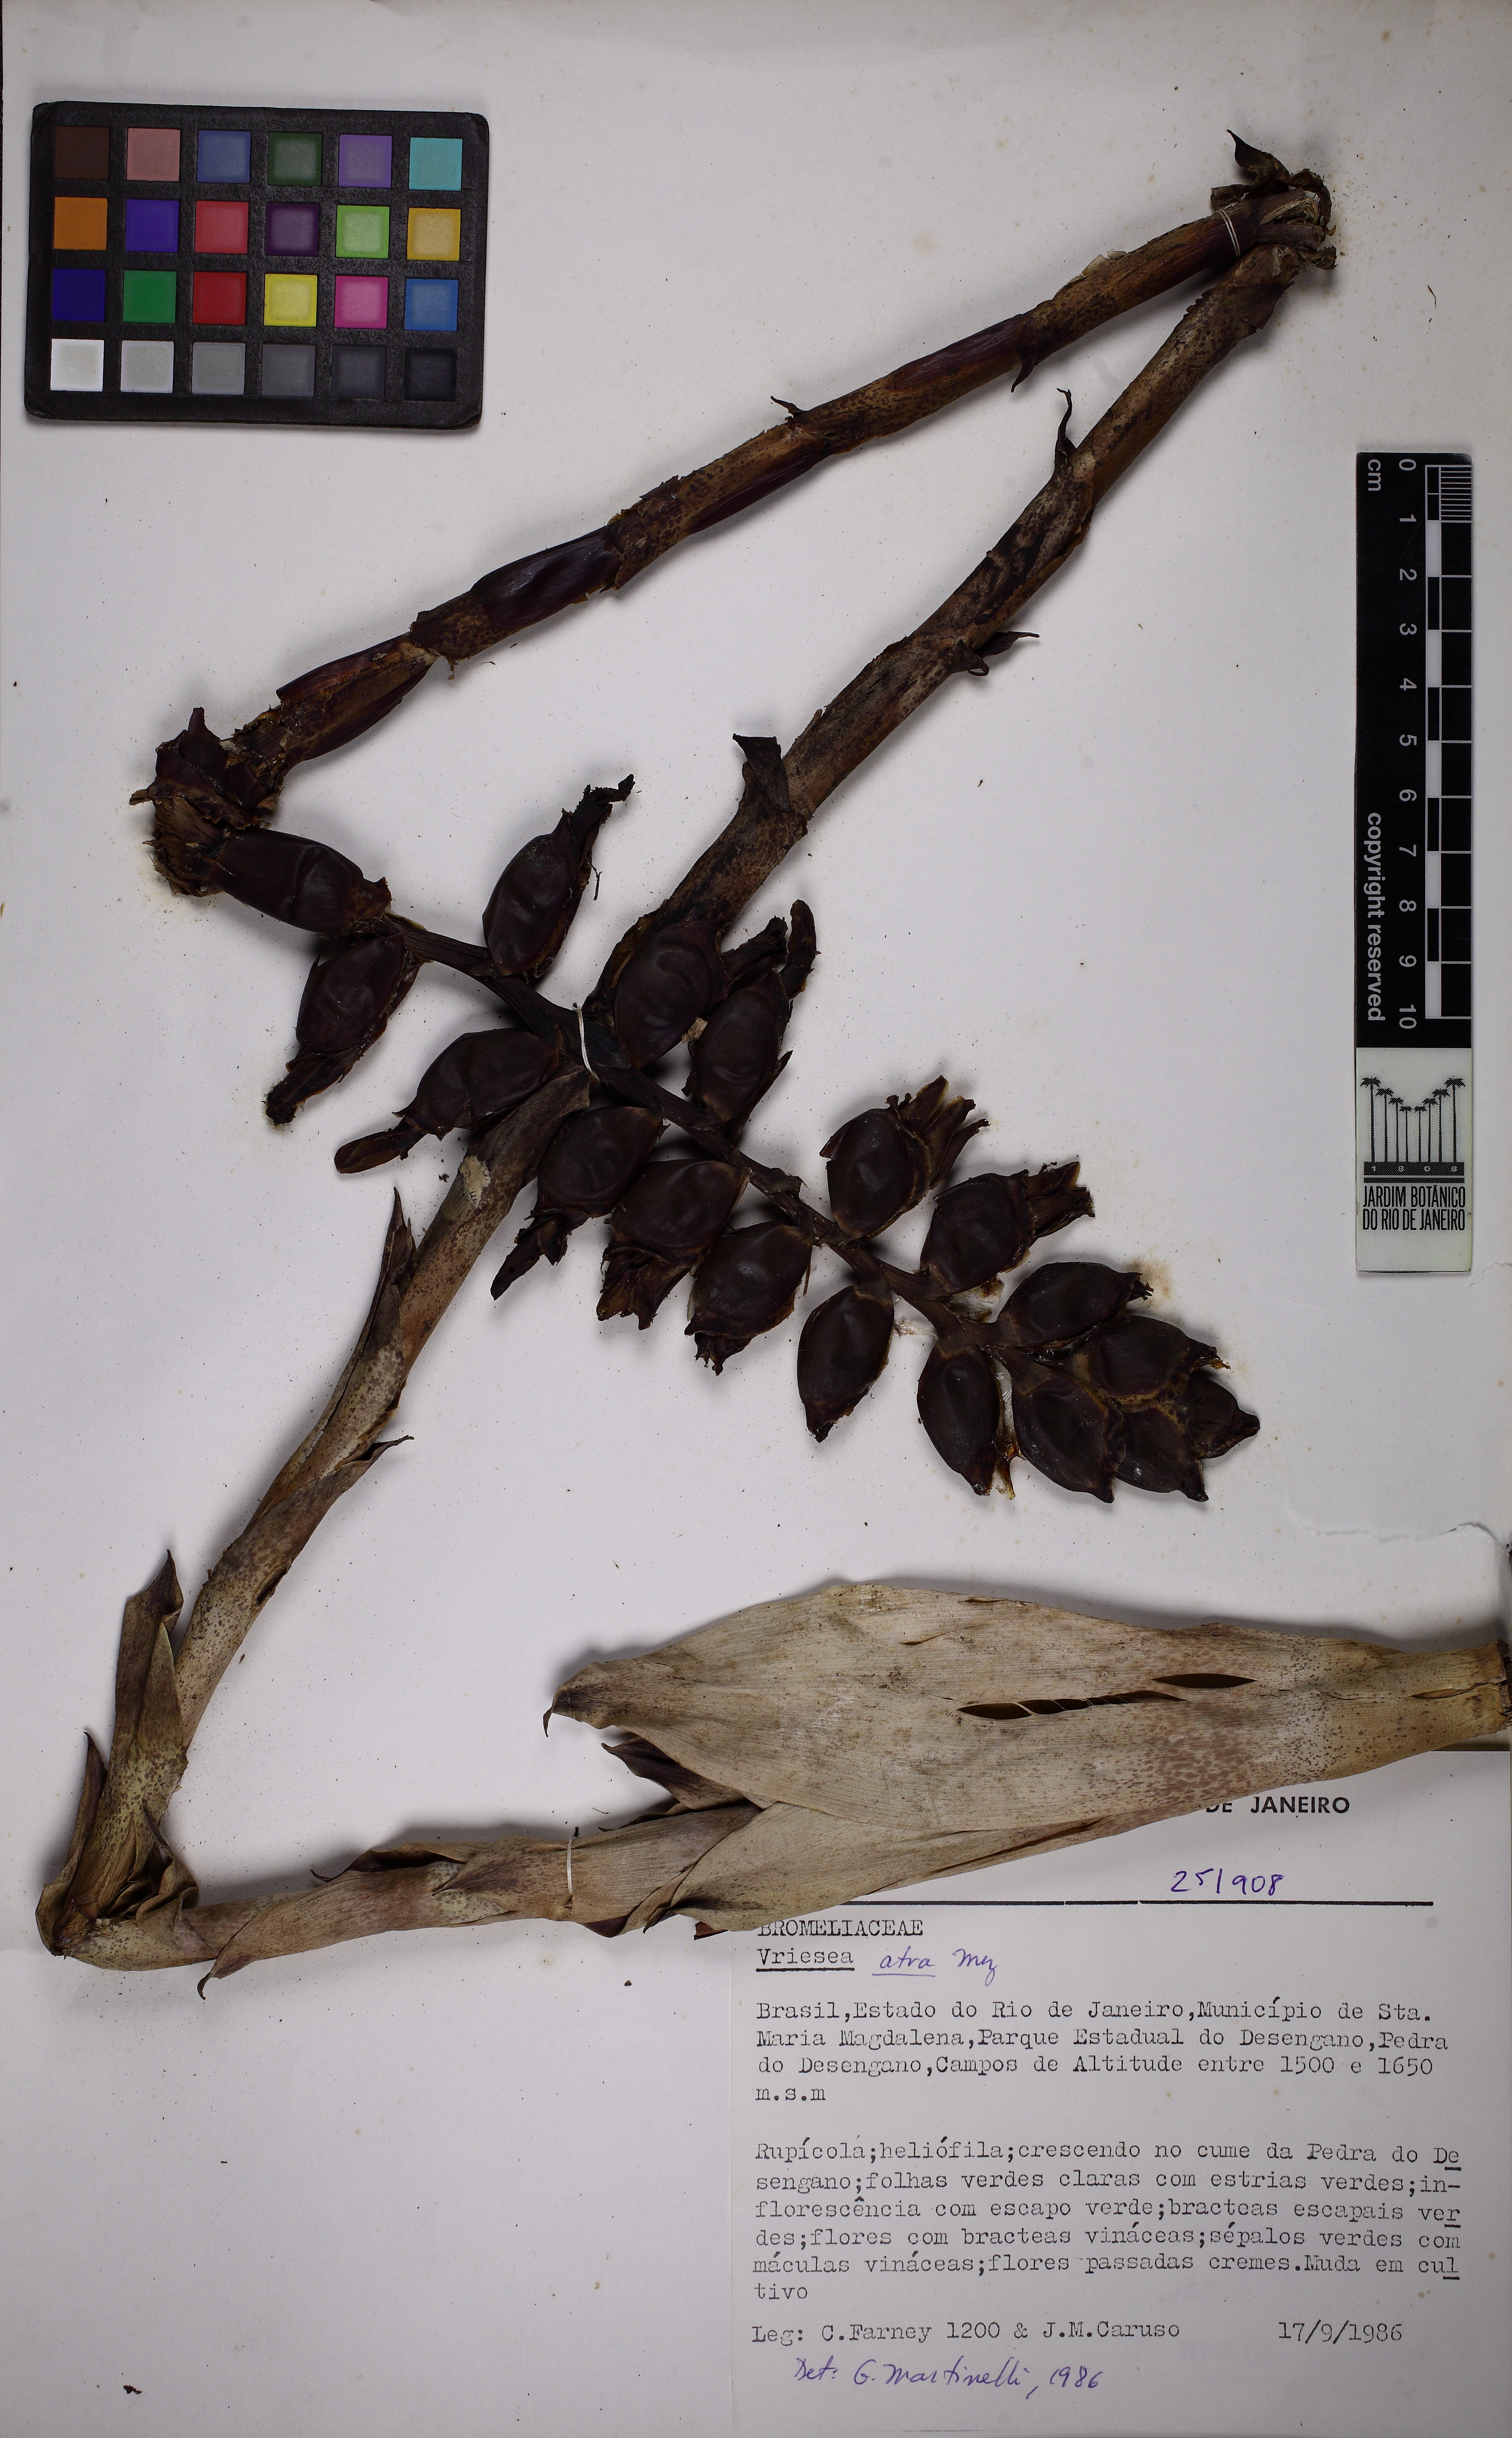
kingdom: Plantae
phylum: Tracheophyta
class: Liliopsida
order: Poales
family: Bromeliaceae
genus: Vriesea
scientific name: Vriesea pseudoatra
